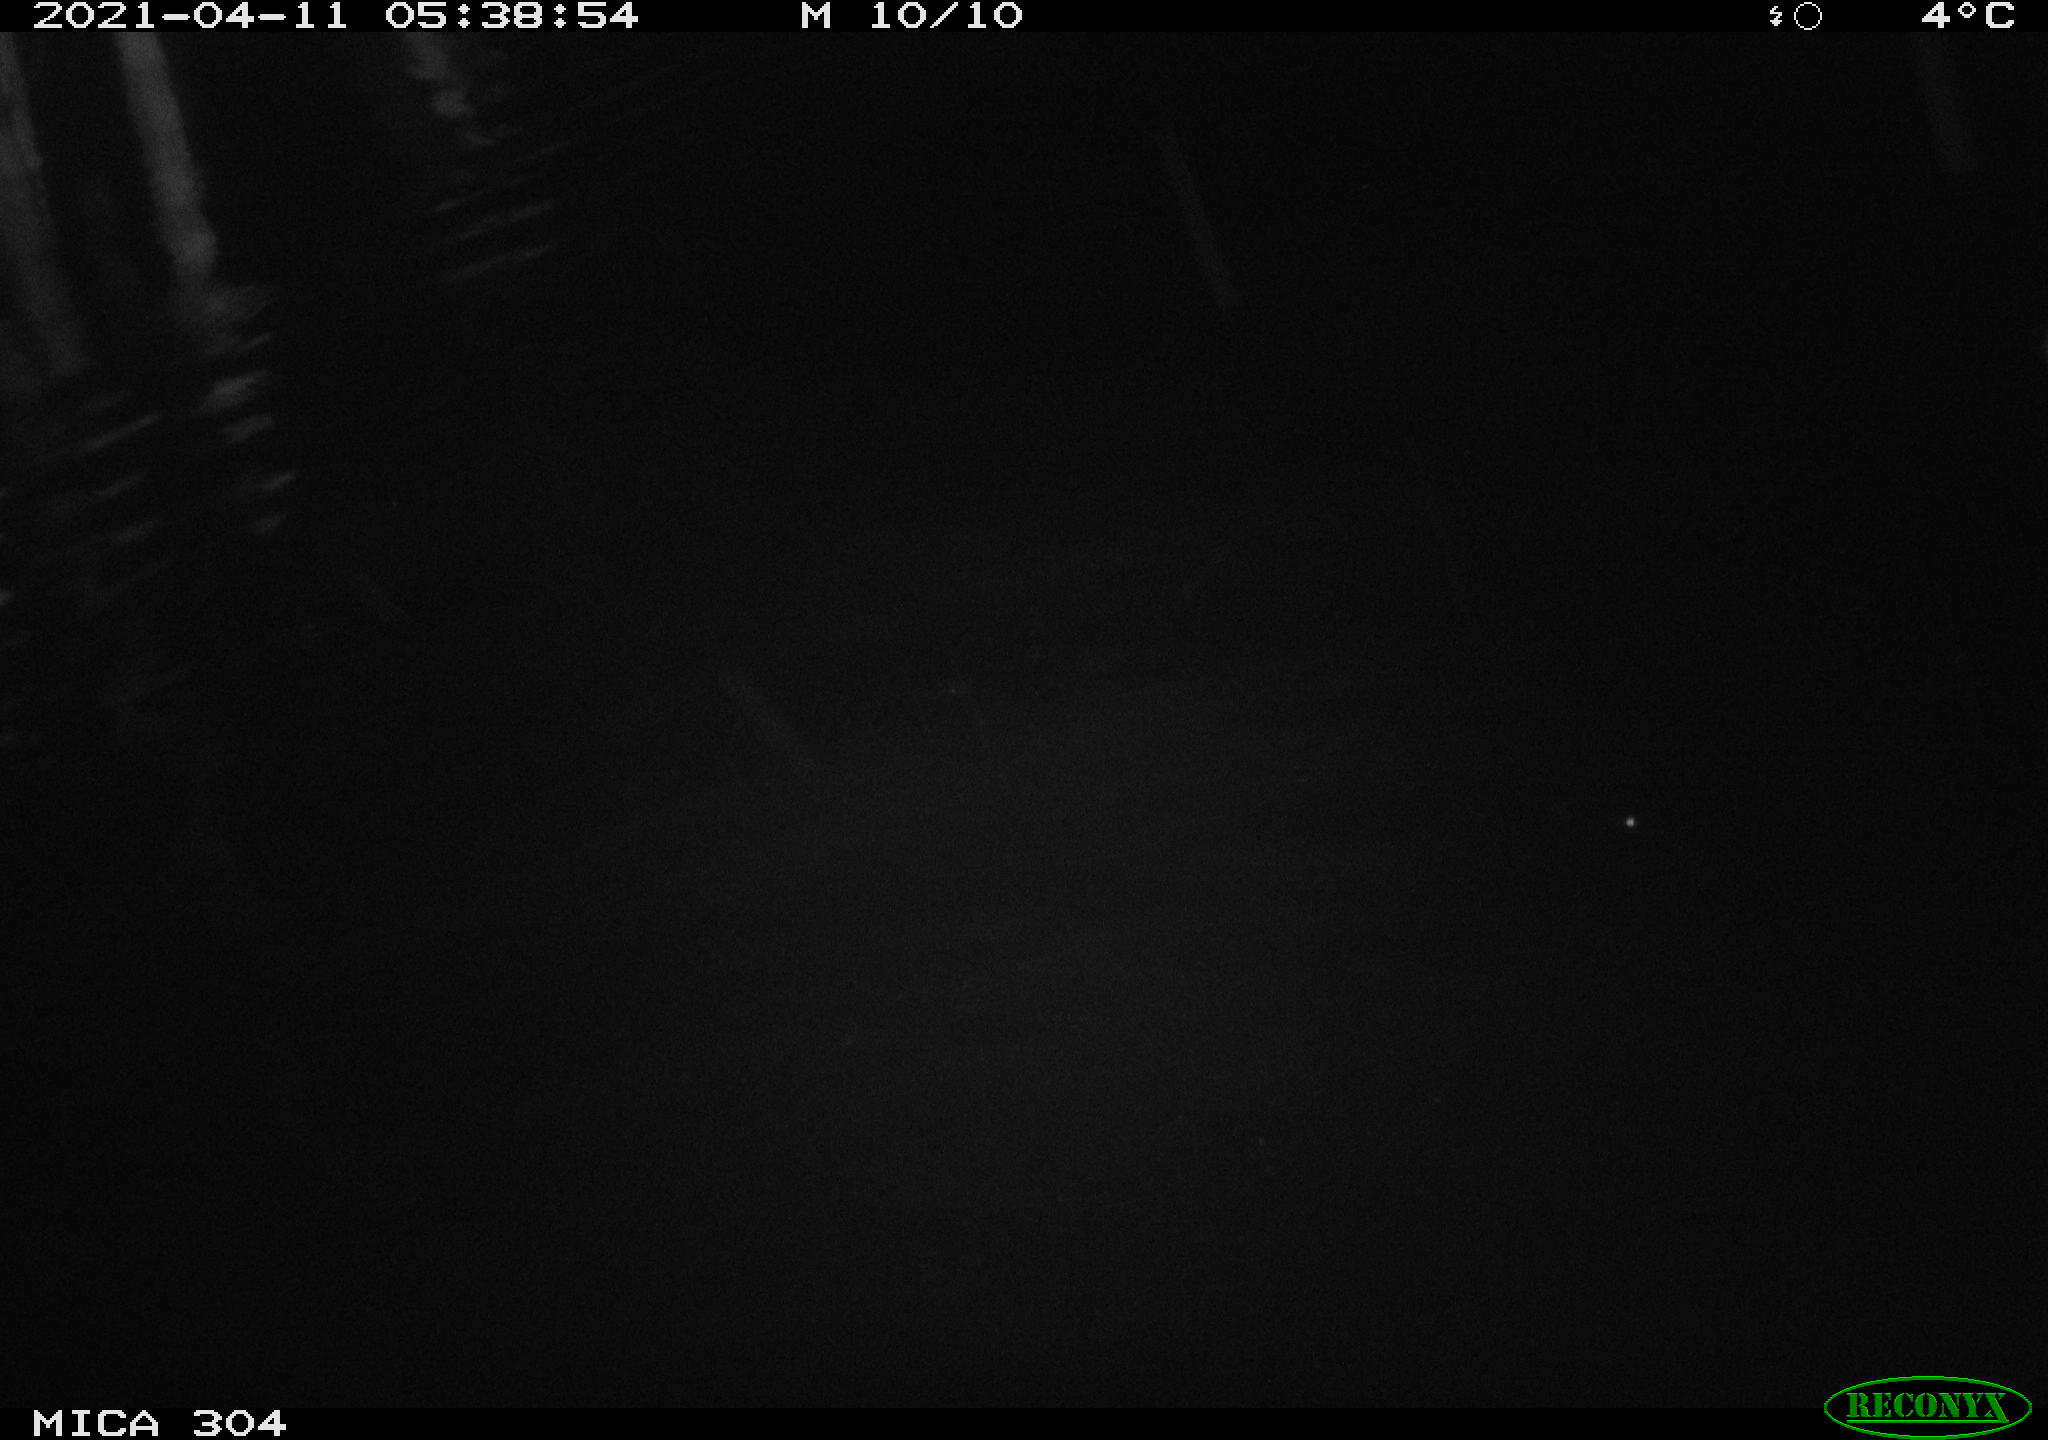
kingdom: Animalia
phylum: Chordata
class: Aves
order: Anseriformes
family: Anatidae
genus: Anas
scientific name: Anas
